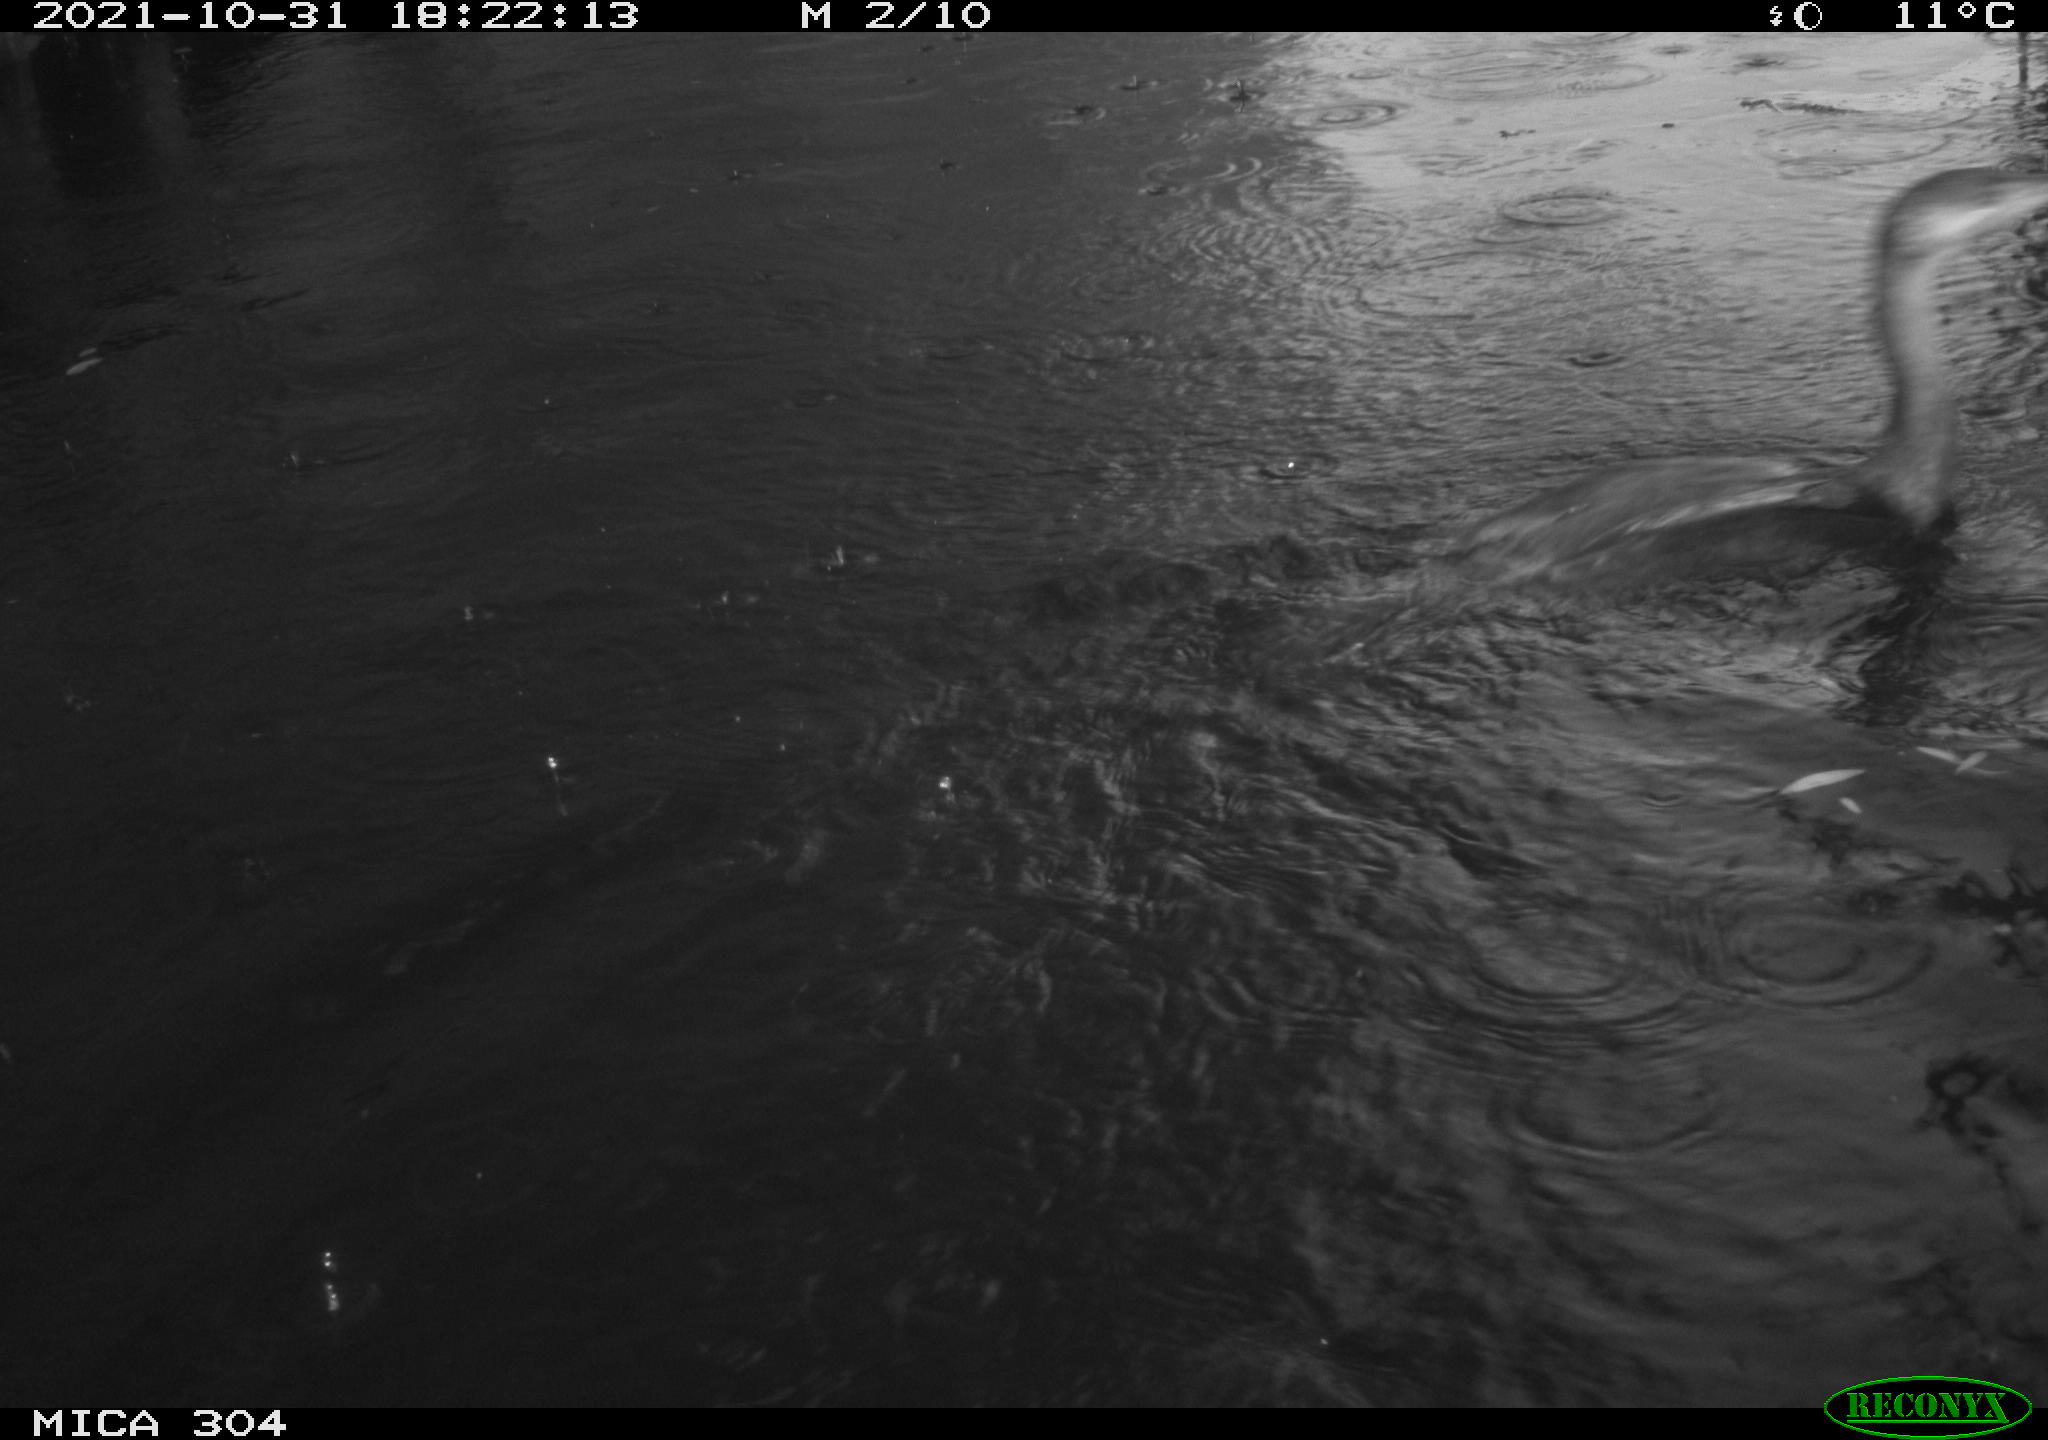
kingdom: Animalia
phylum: Chordata
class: Aves
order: Suliformes
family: Phalacrocoracidae
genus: Phalacrocorax
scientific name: Phalacrocorax carbo
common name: Great cormorant
